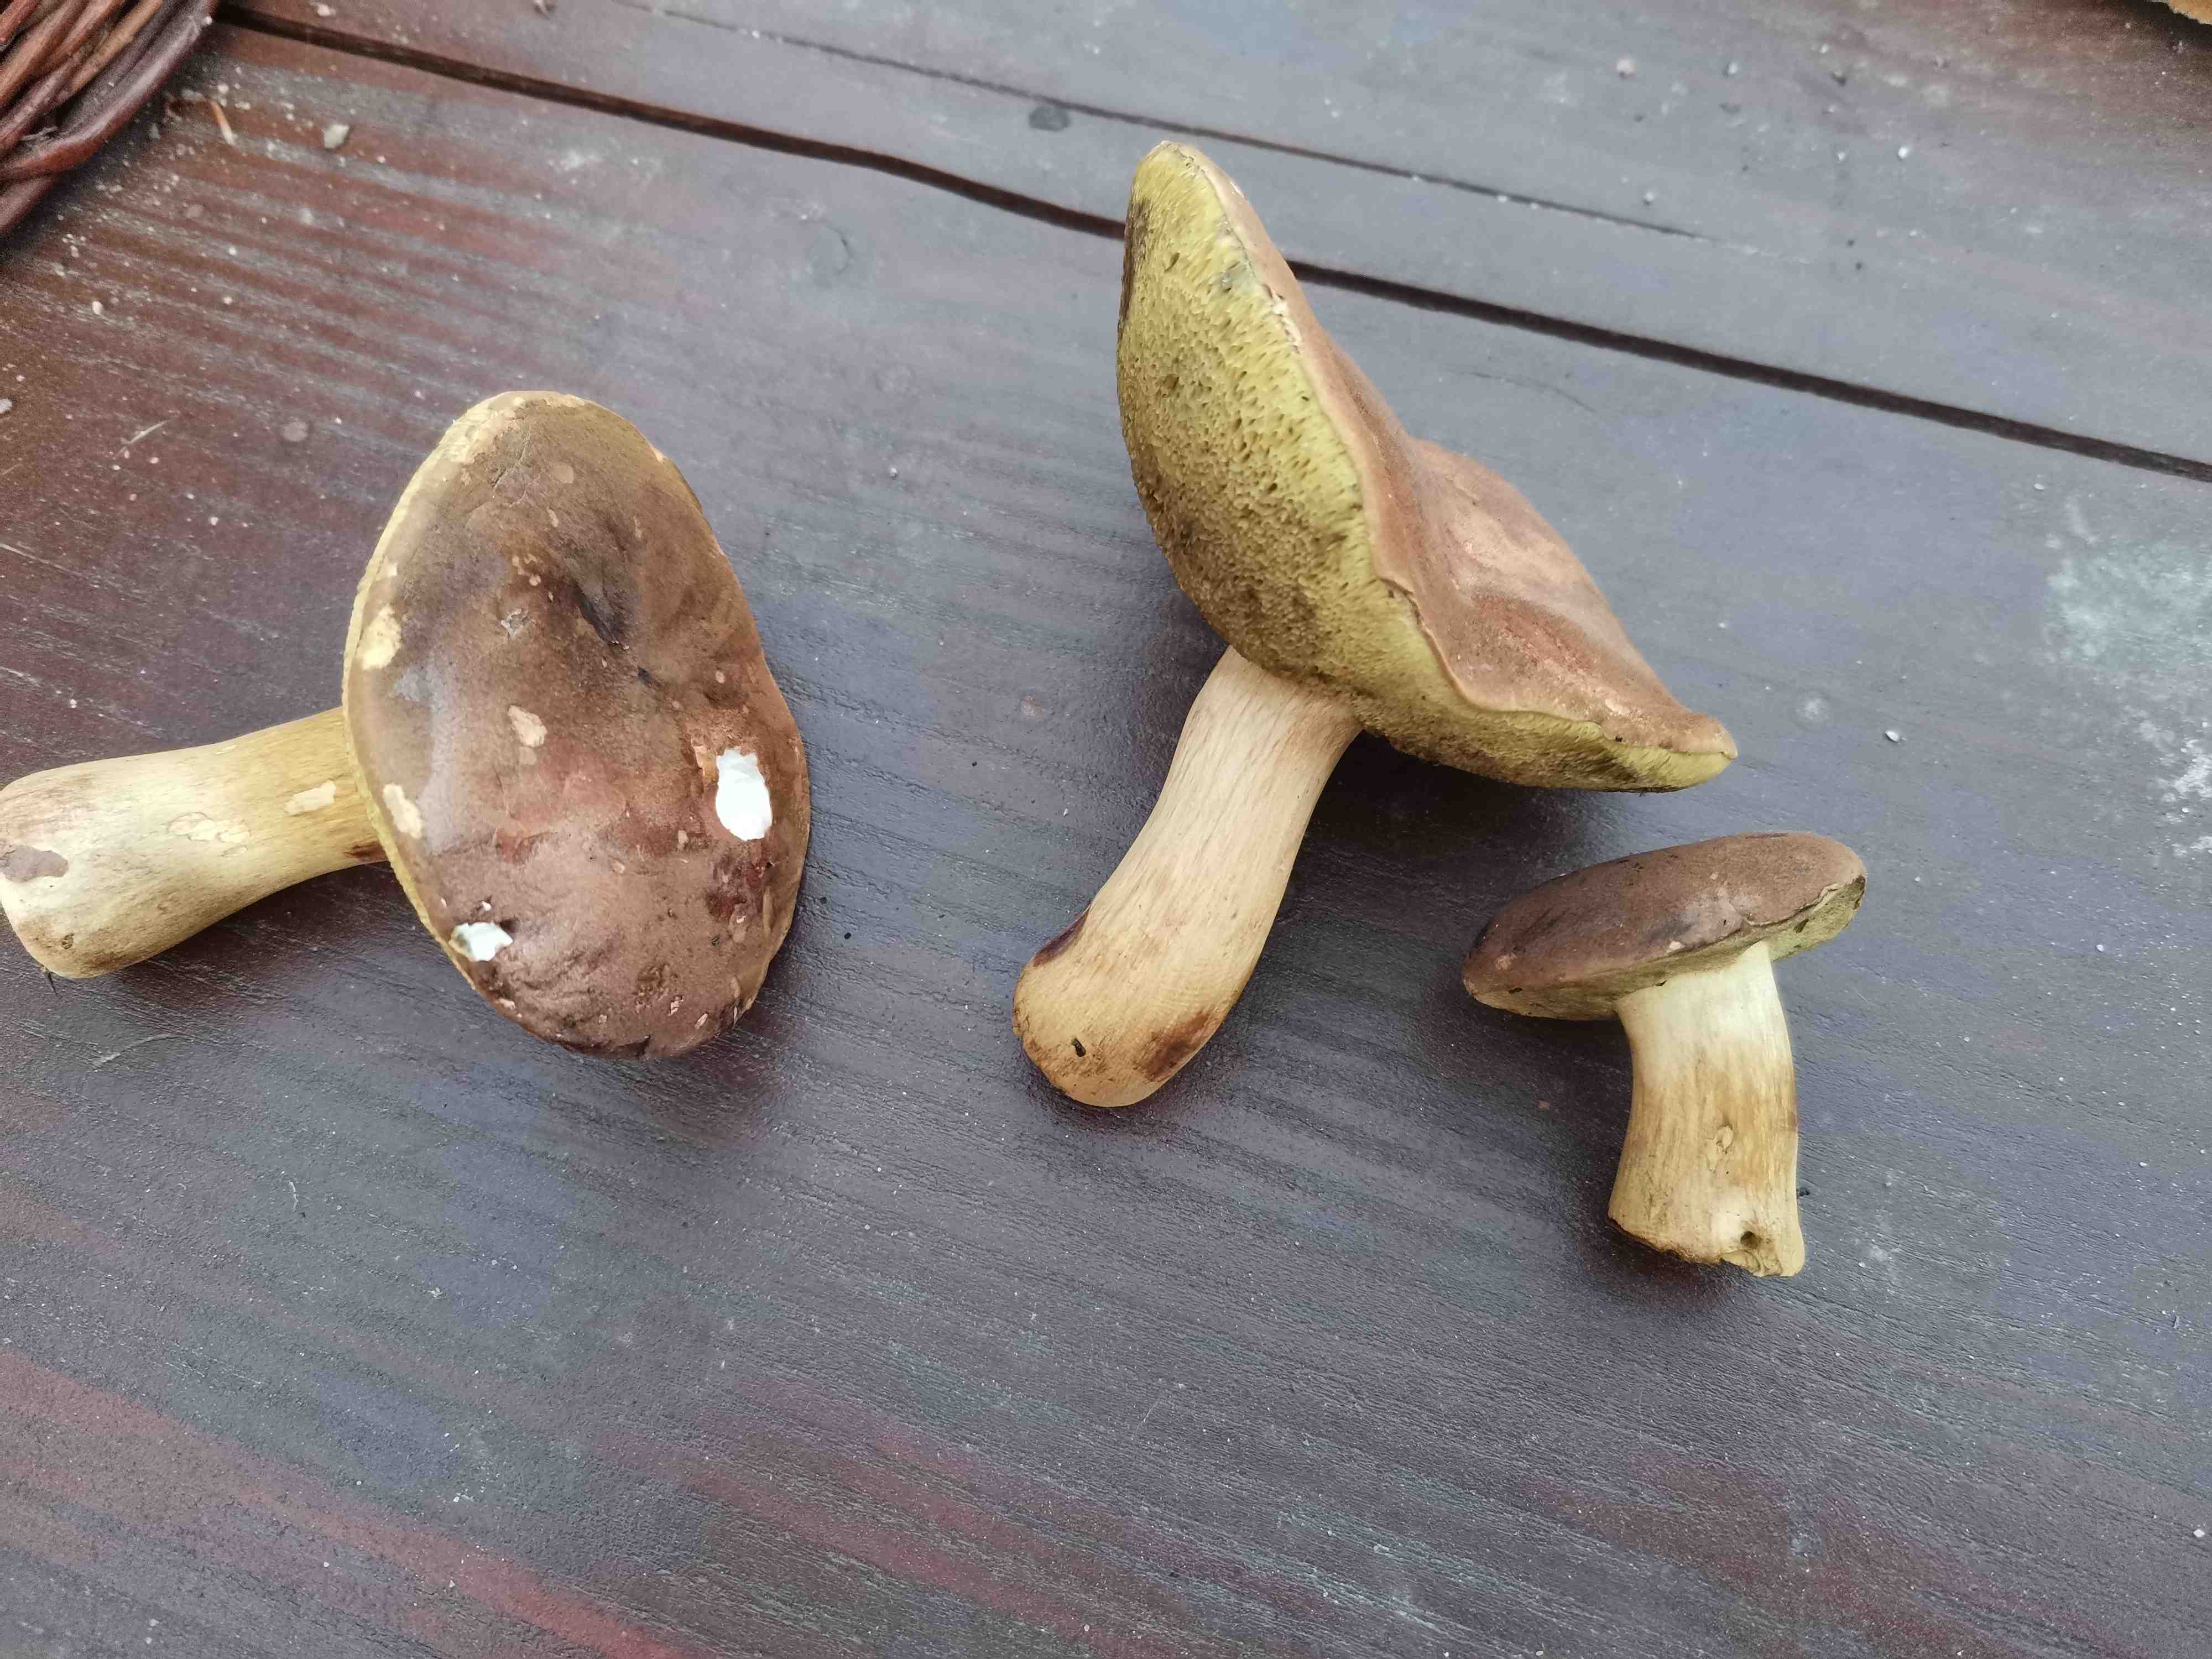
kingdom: Fungi
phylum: Basidiomycota
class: Agaricomycetes
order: Boletales
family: Boletaceae
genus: Imleria
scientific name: Imleria badia
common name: brunstokket rørhat
